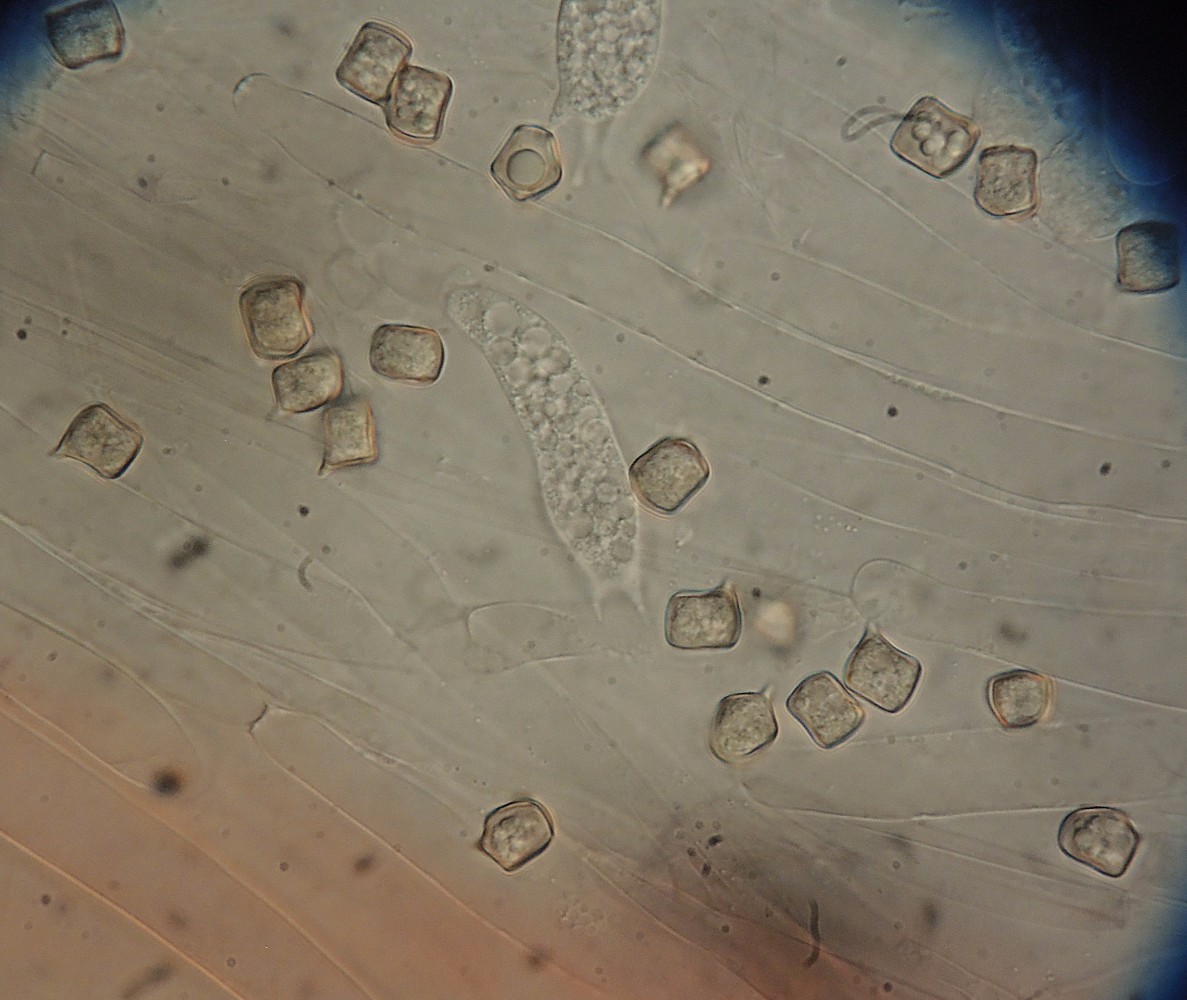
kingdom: Fungi
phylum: Basidiomycota
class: Agaricomycetes
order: Agaricales
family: Entolomataceae
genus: Entoloma
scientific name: Entoloma caulocystidiatum
